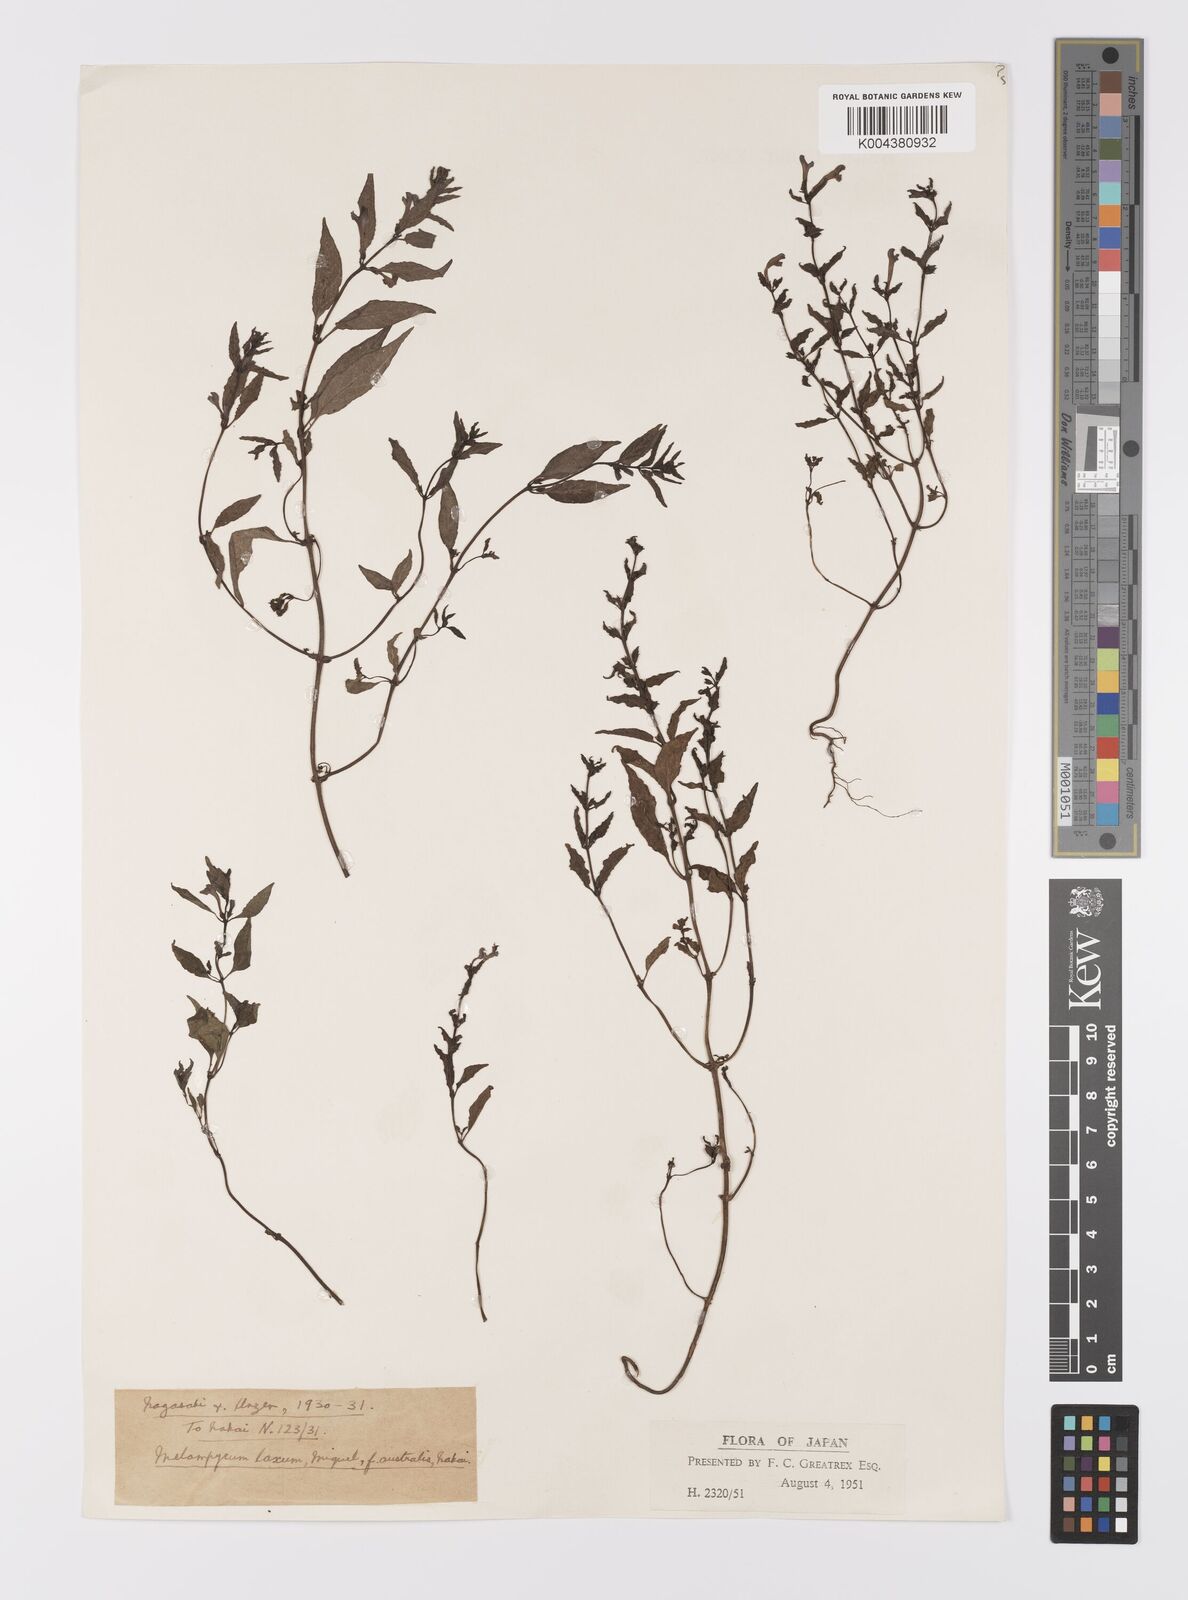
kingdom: Plantae
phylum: Tracheophyta
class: Magnoliopsida
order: Lamiales
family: Orobanchaceae
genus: Melampyrum
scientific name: Melampyrum laxum
